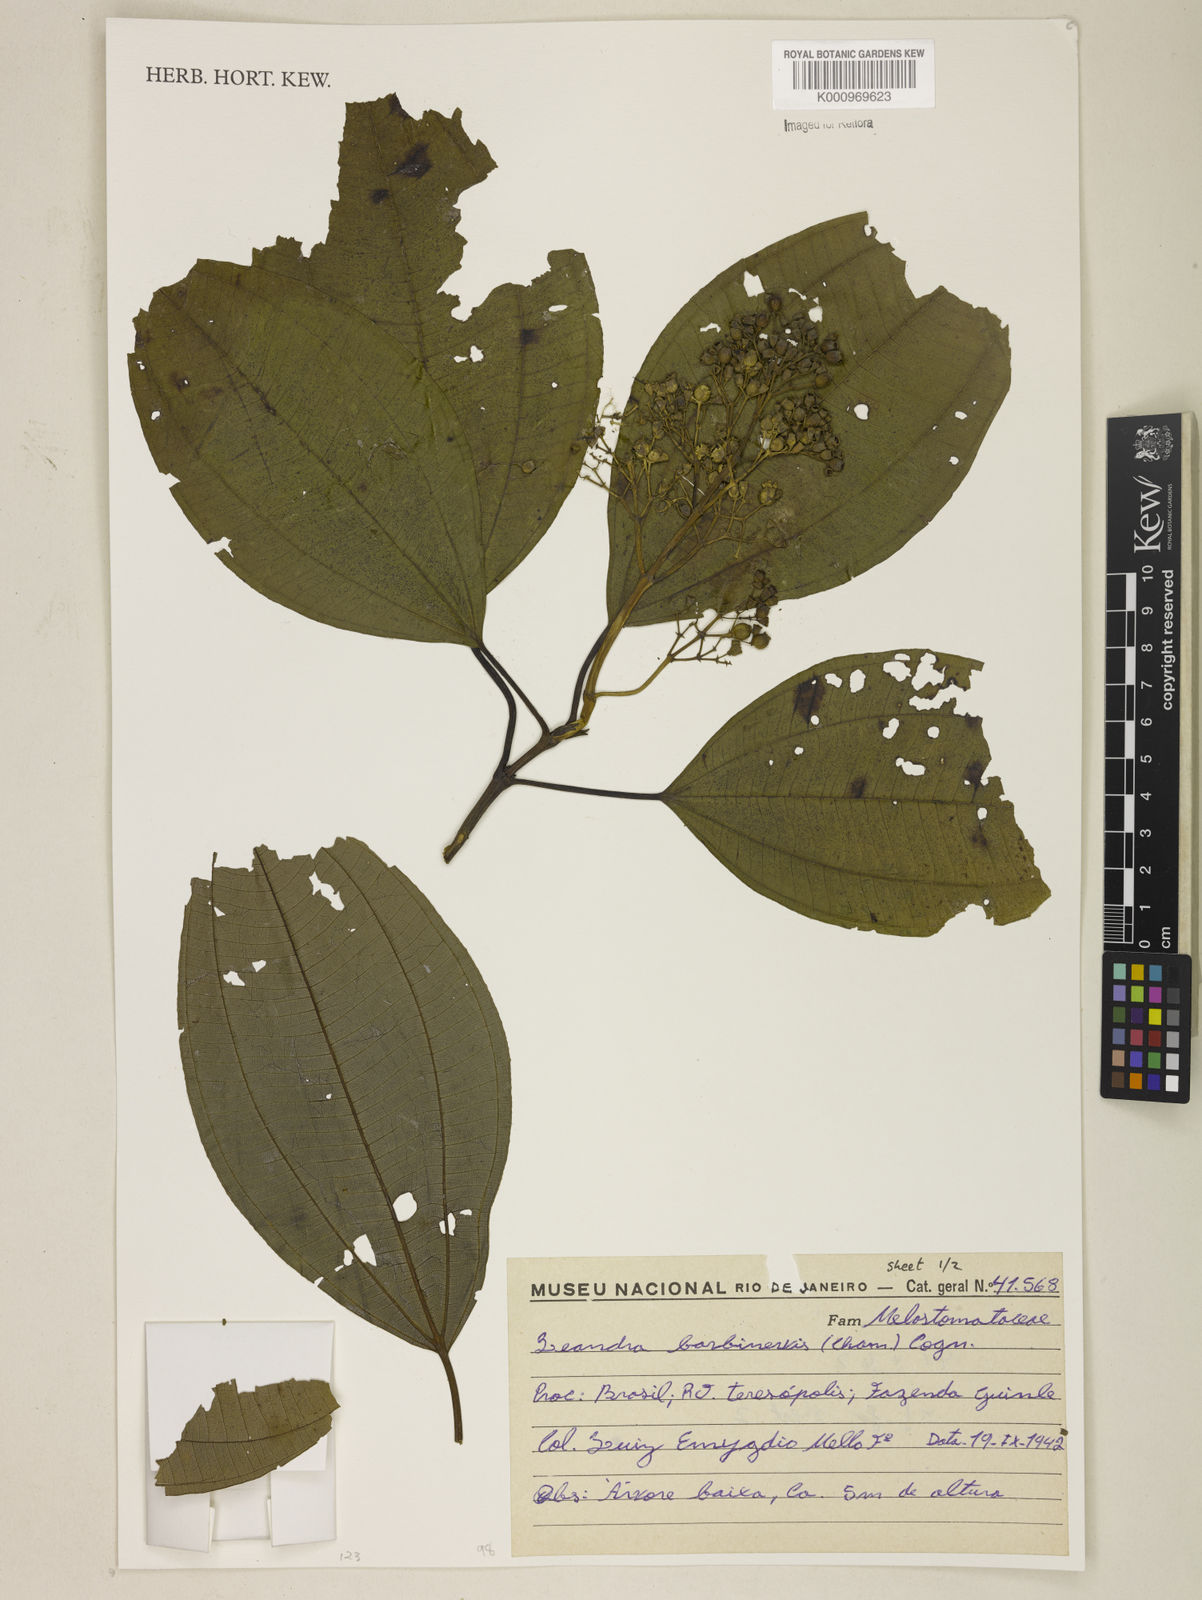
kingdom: Plantae
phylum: Tracheophyta
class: Magnoliopsida
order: Myrtales
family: Melastomataceae
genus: Miconia
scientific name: Miconia trauninensis
